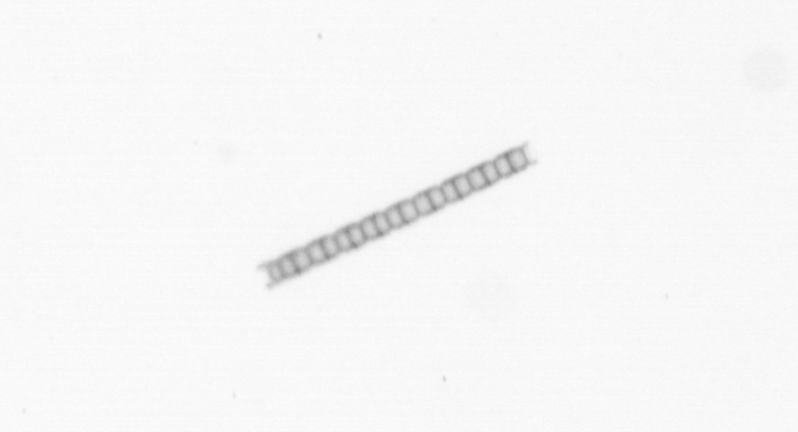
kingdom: Chromista
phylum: Ochrophyta
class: Bacillariophyceae
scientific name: Bacillariophyceae
